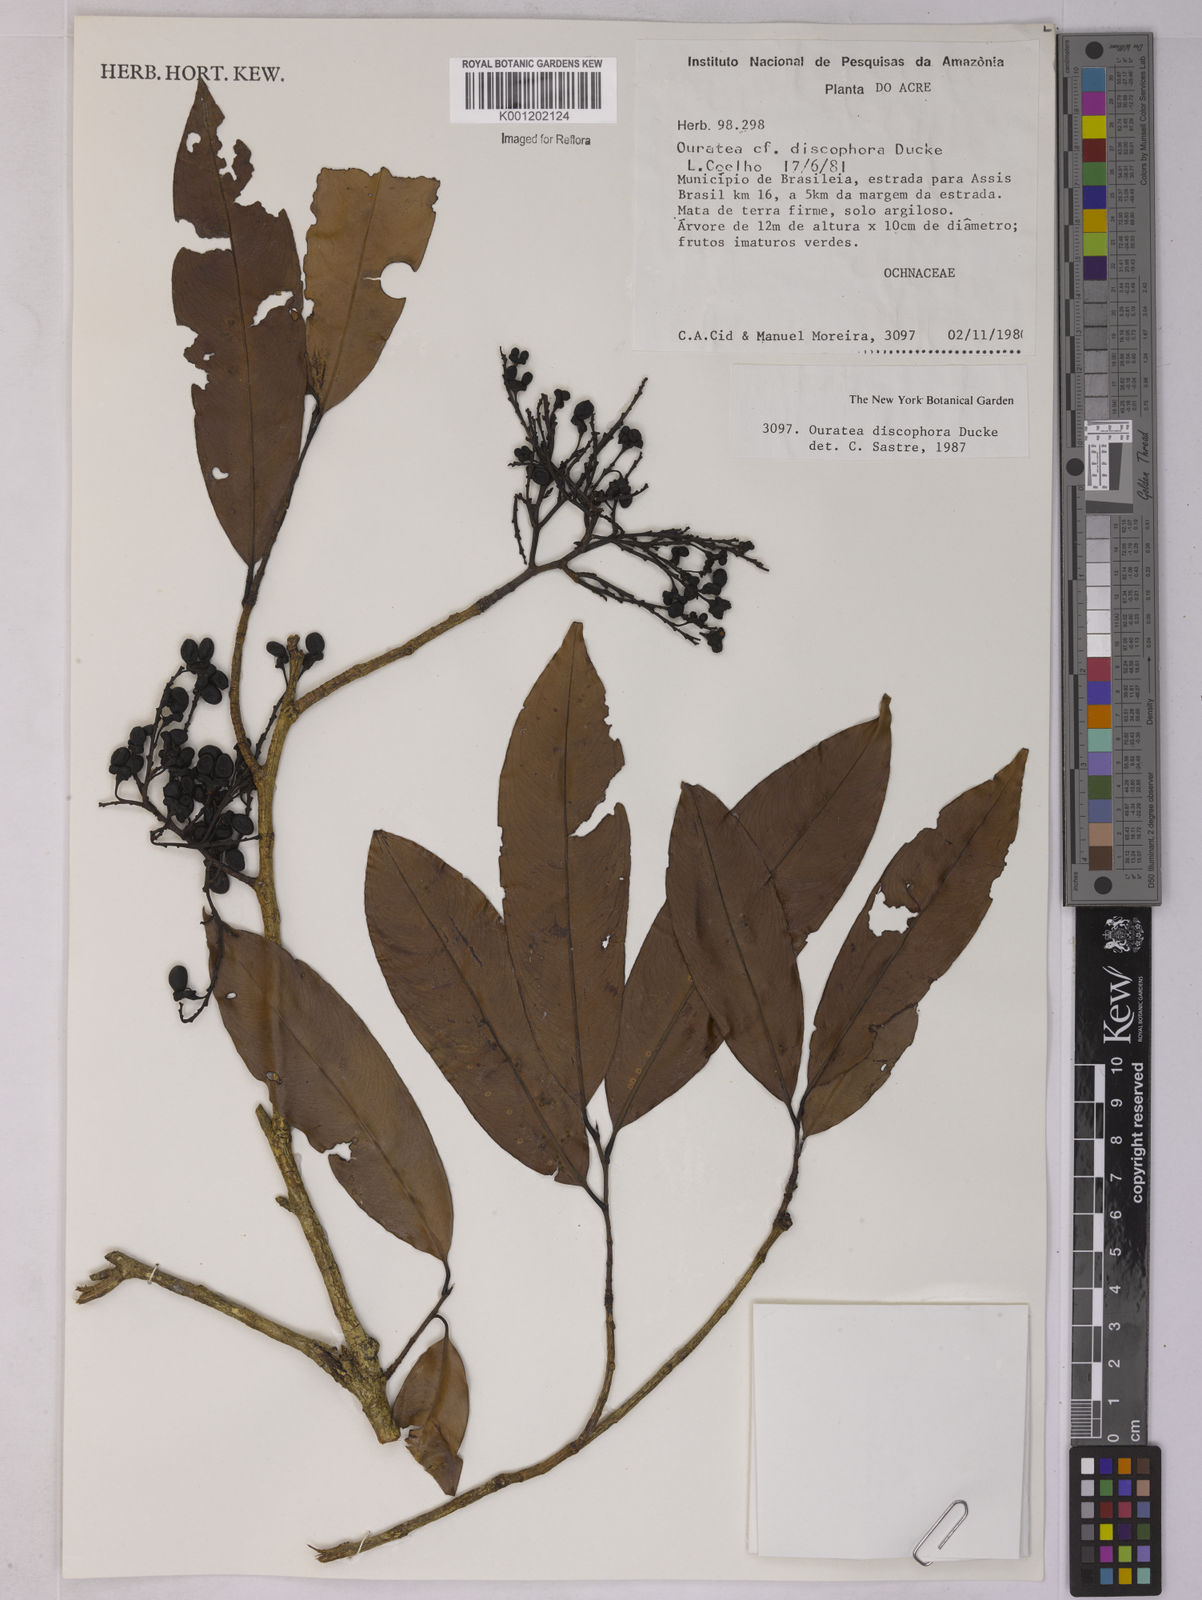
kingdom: Plantae
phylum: Tracheophyta
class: Magnoliopsida
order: Malpighiales
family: Ochnaceae
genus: Ouratea
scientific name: Ouratea discophora
